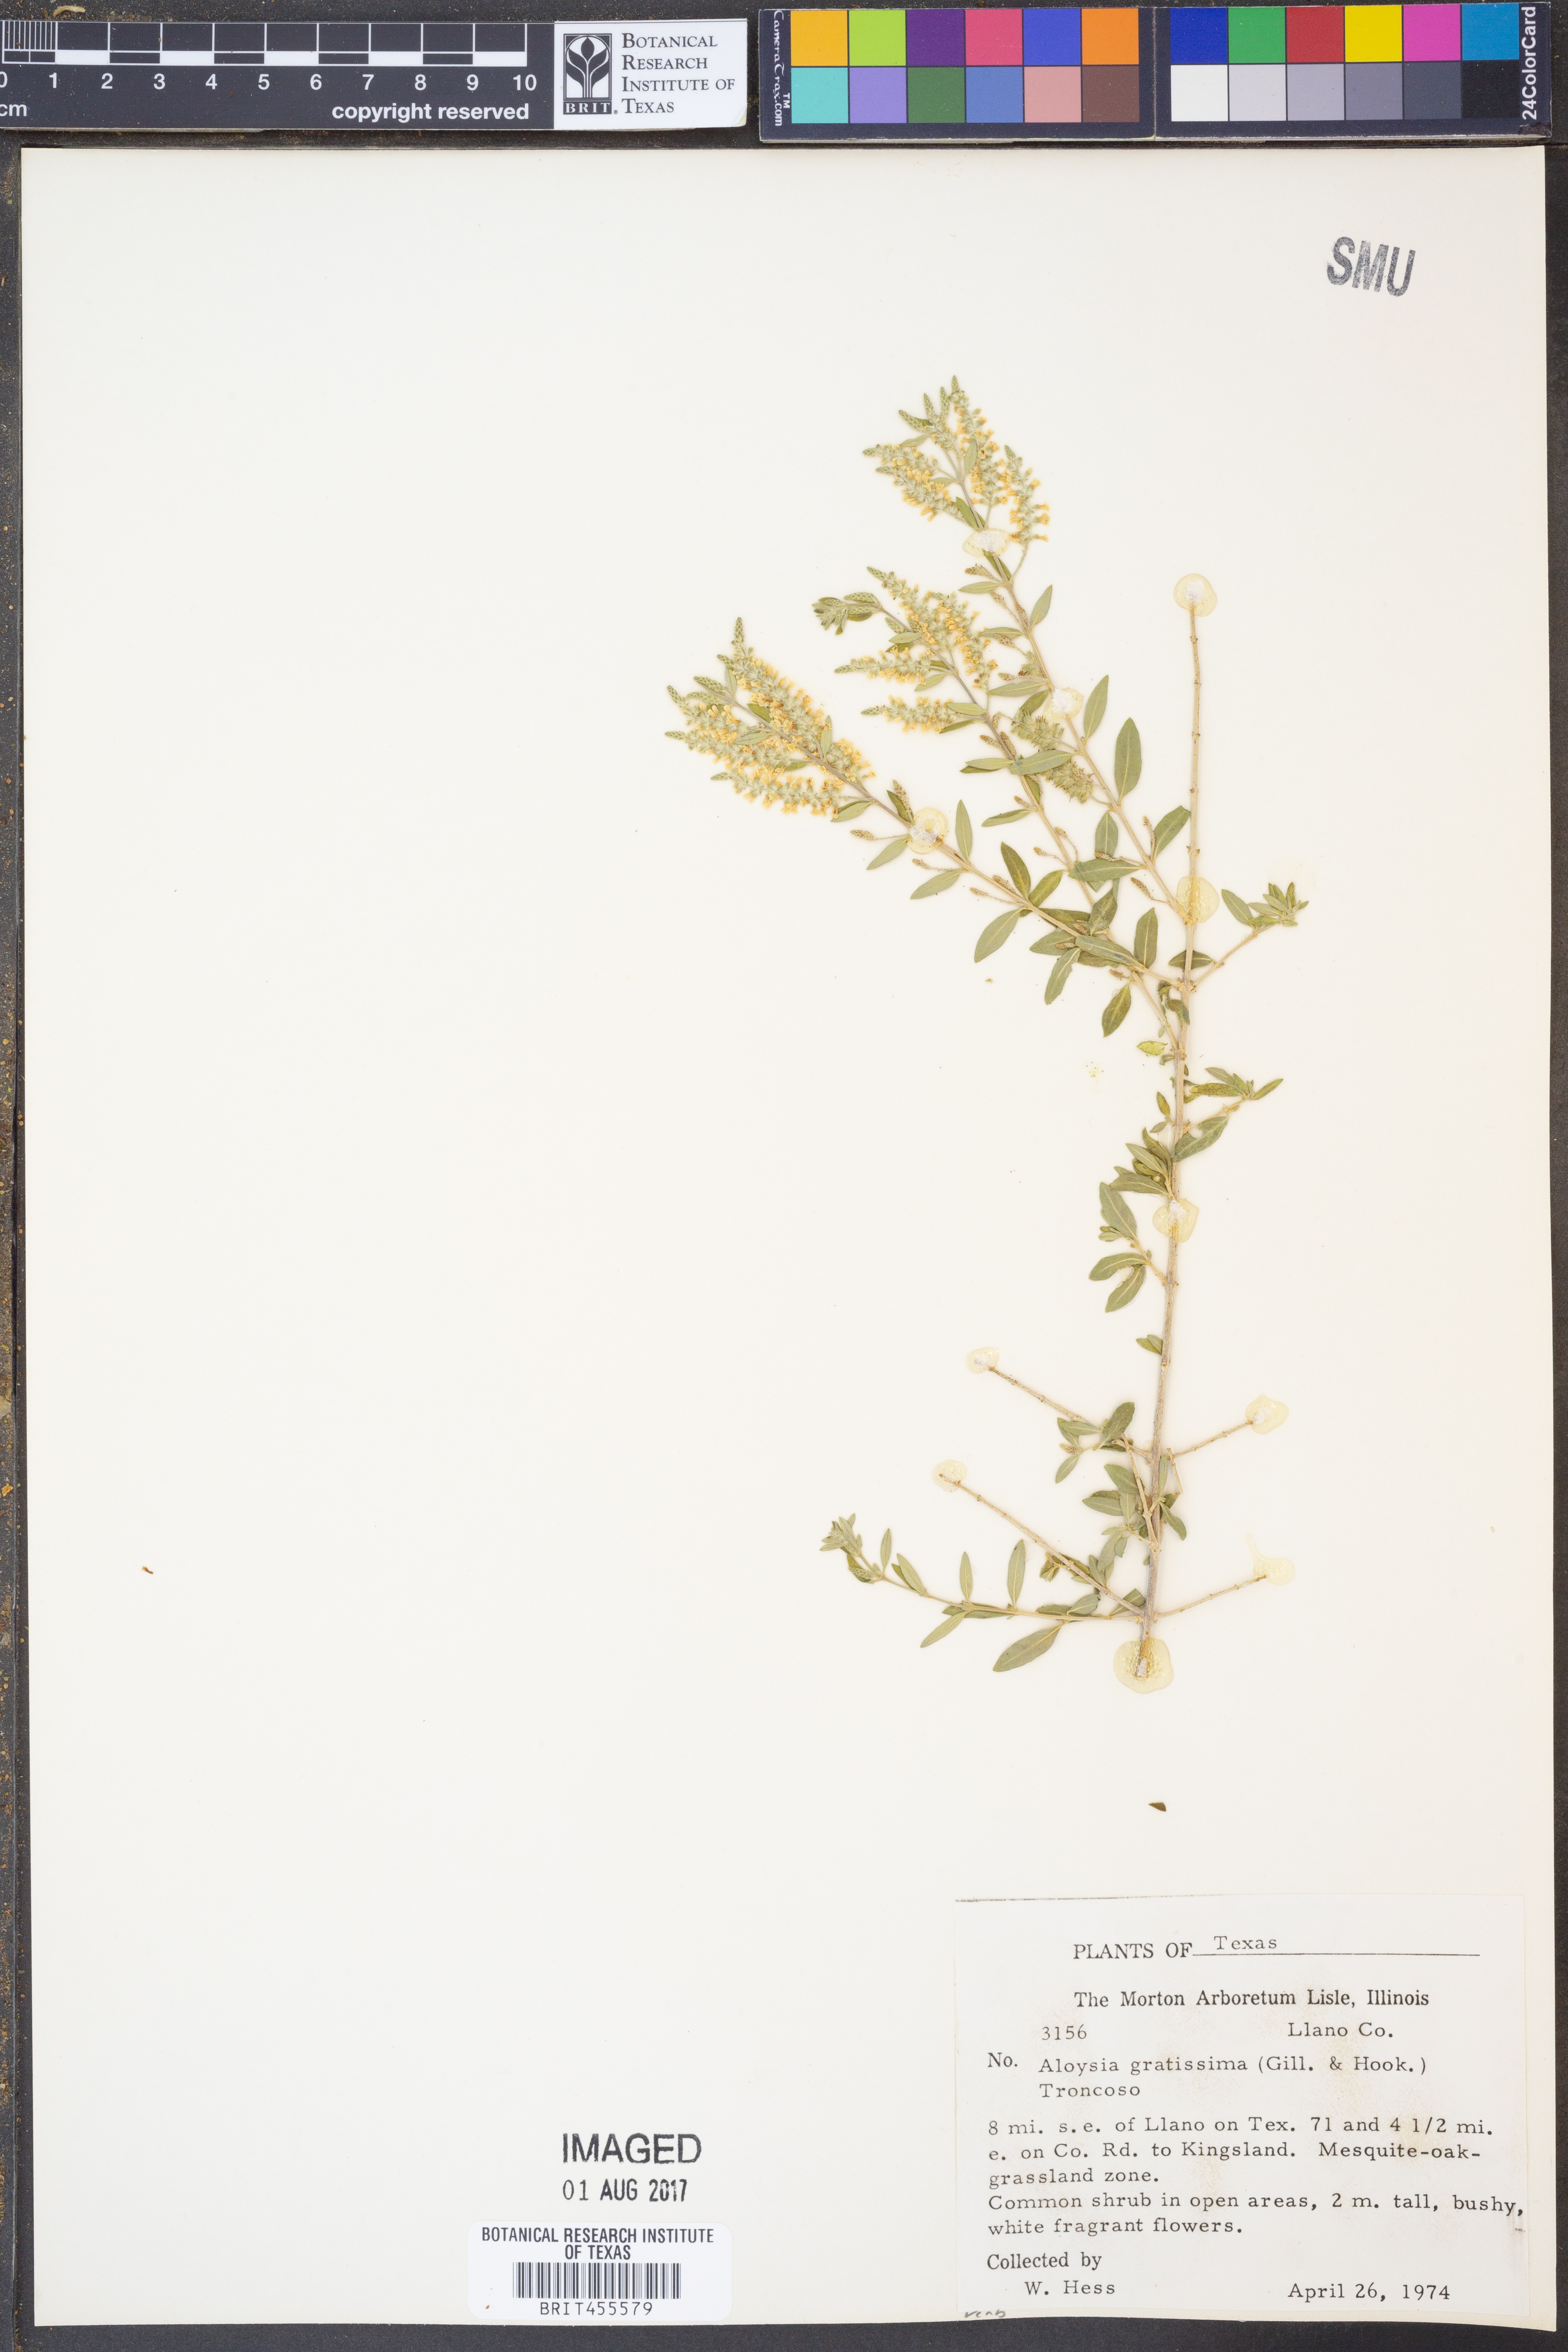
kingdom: Plantae
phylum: Tracheophyta
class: Magnoliopsida
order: Lamiales
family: Verbenaceae
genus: Aloysia
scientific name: Aloysia gratissima
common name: Common bee-brush
